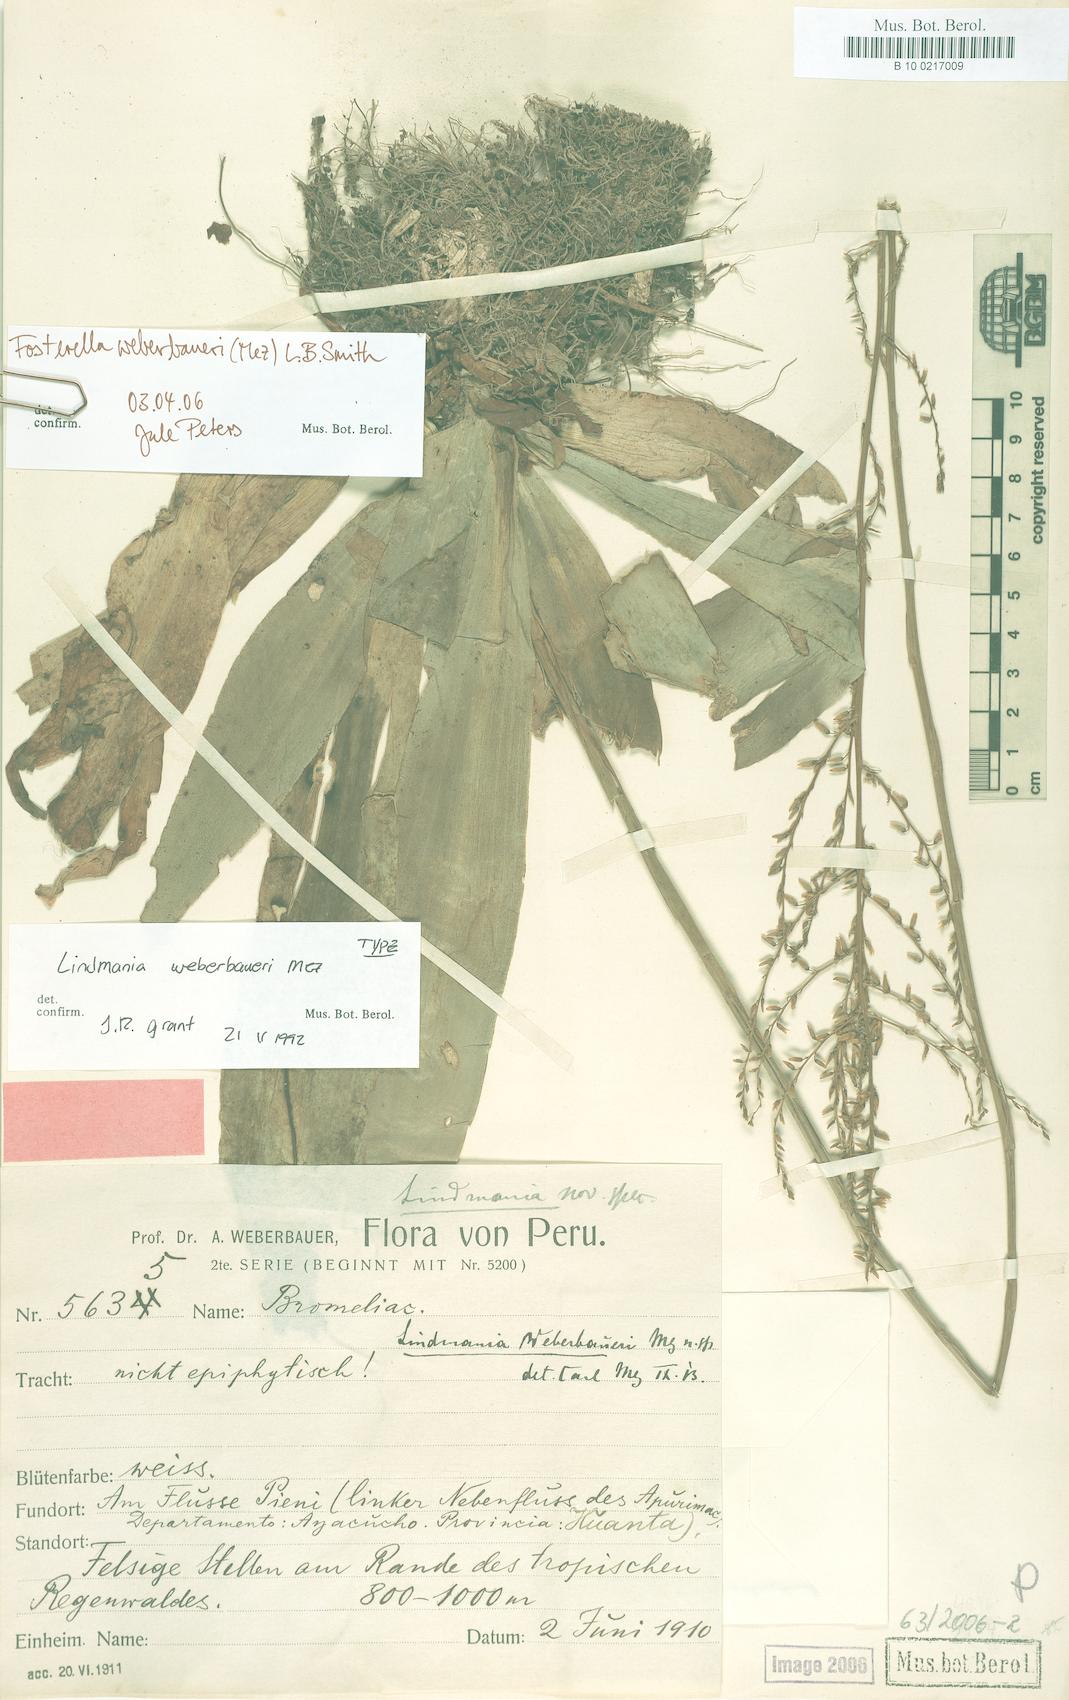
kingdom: Plantae
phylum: Tracheophyta
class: Liliopsida
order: Poales
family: Bromeliaceae
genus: Fosterella
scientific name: Fosterella weberbaueri
